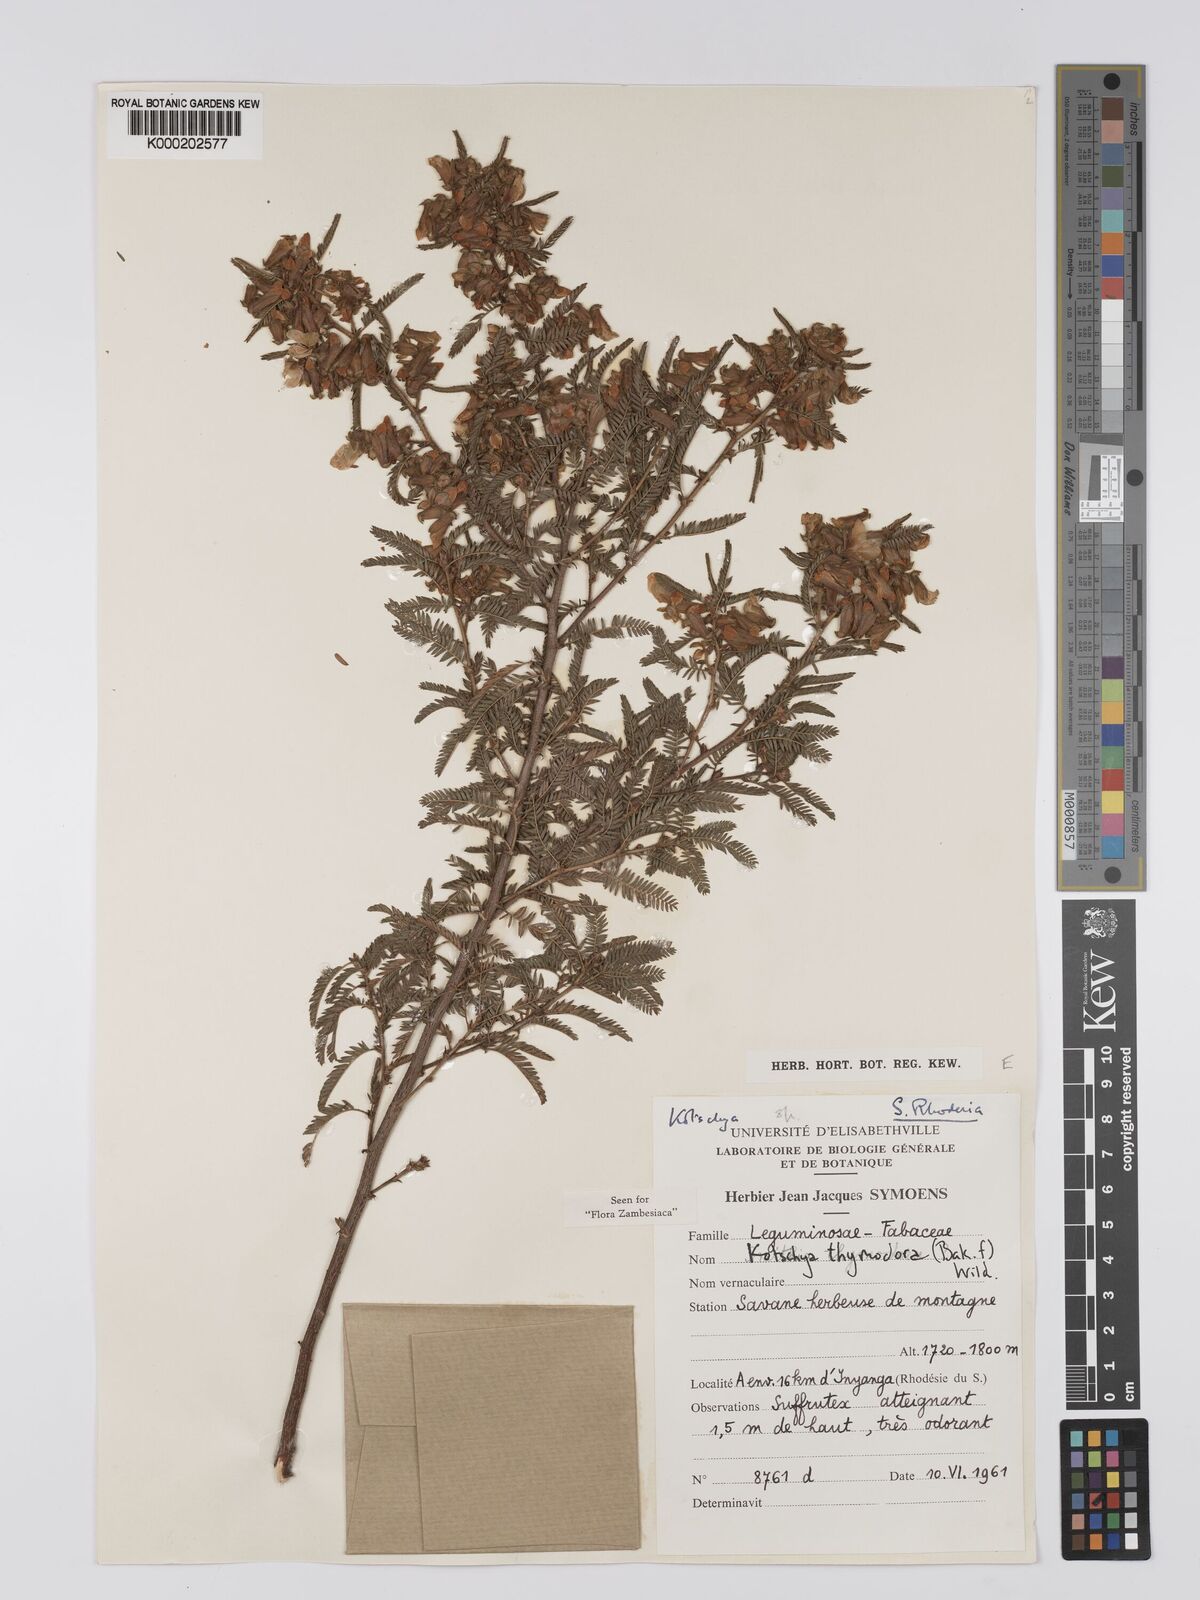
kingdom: Plantae
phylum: Tracheophyta
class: Magnoliopsida
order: Fabales
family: Fabaceae
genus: Kotschya
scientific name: Kotschya thymodora
